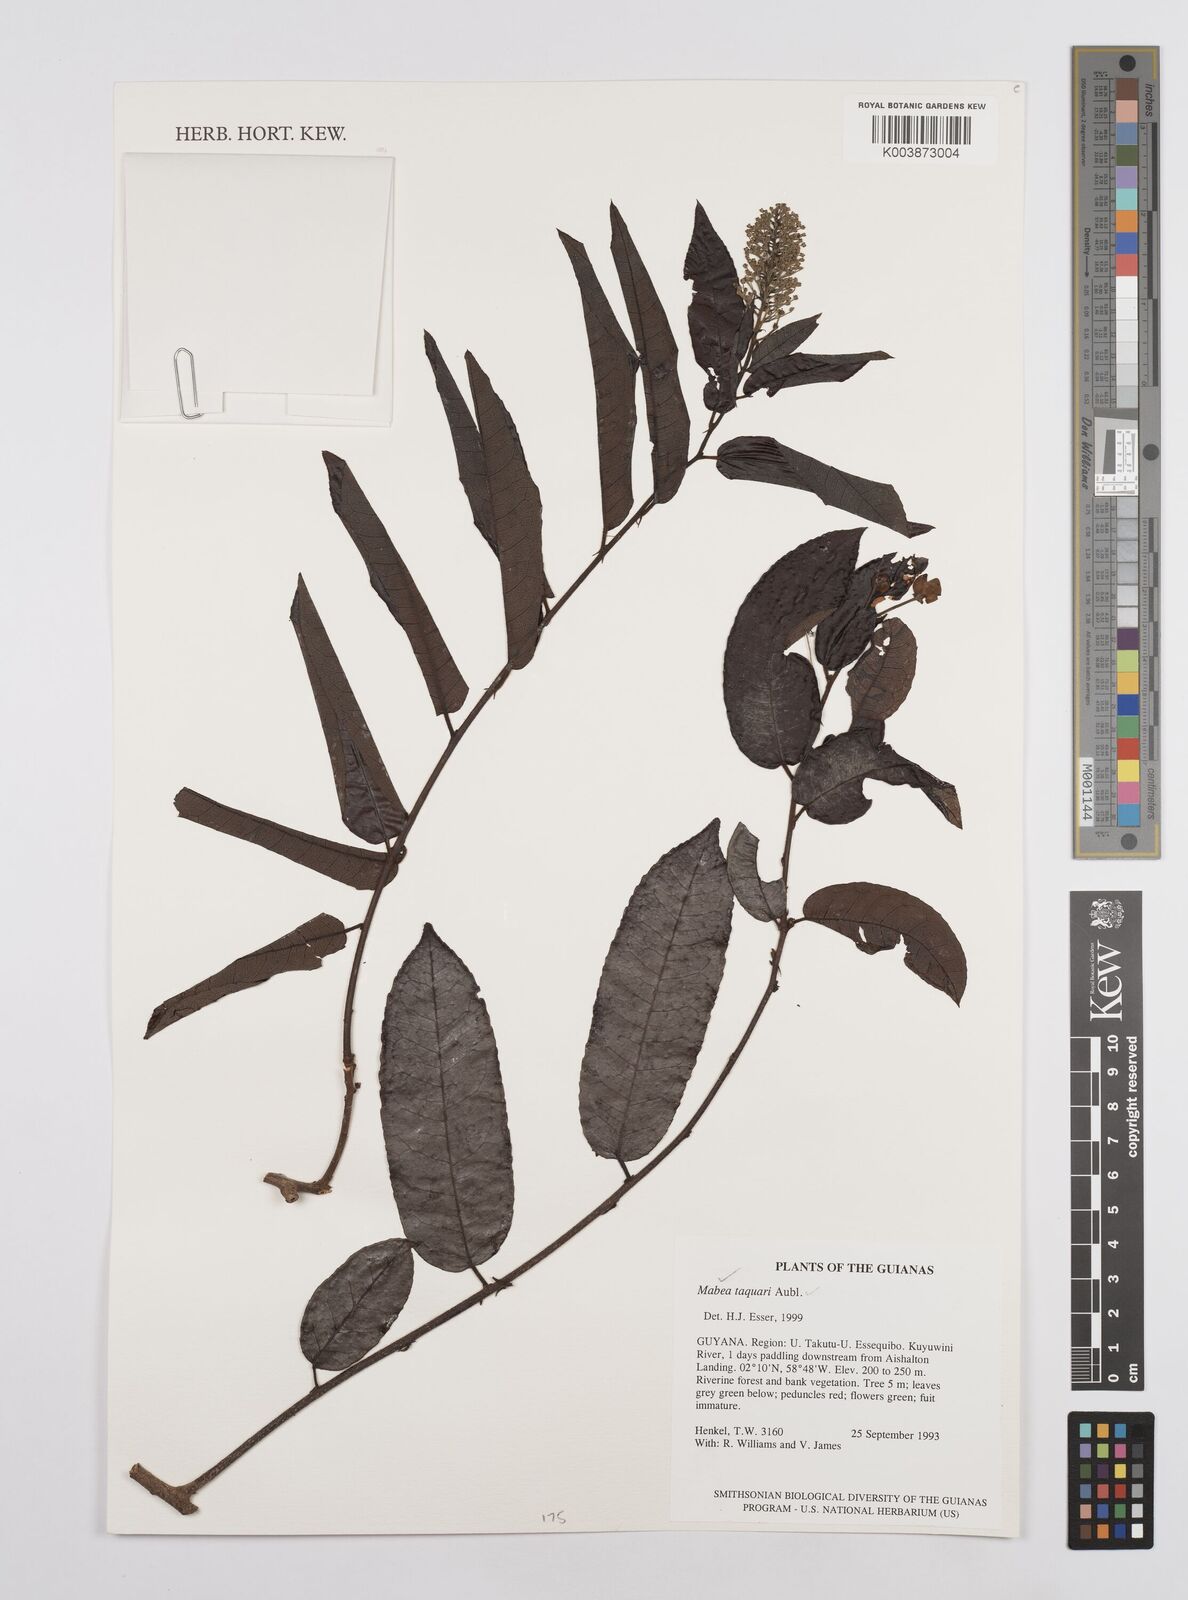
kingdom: Plantae
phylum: Tracheophyta
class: Magnoliopsida
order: Malpighiales
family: Euphorbiaceae
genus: Mabea
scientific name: Mabea taquari
